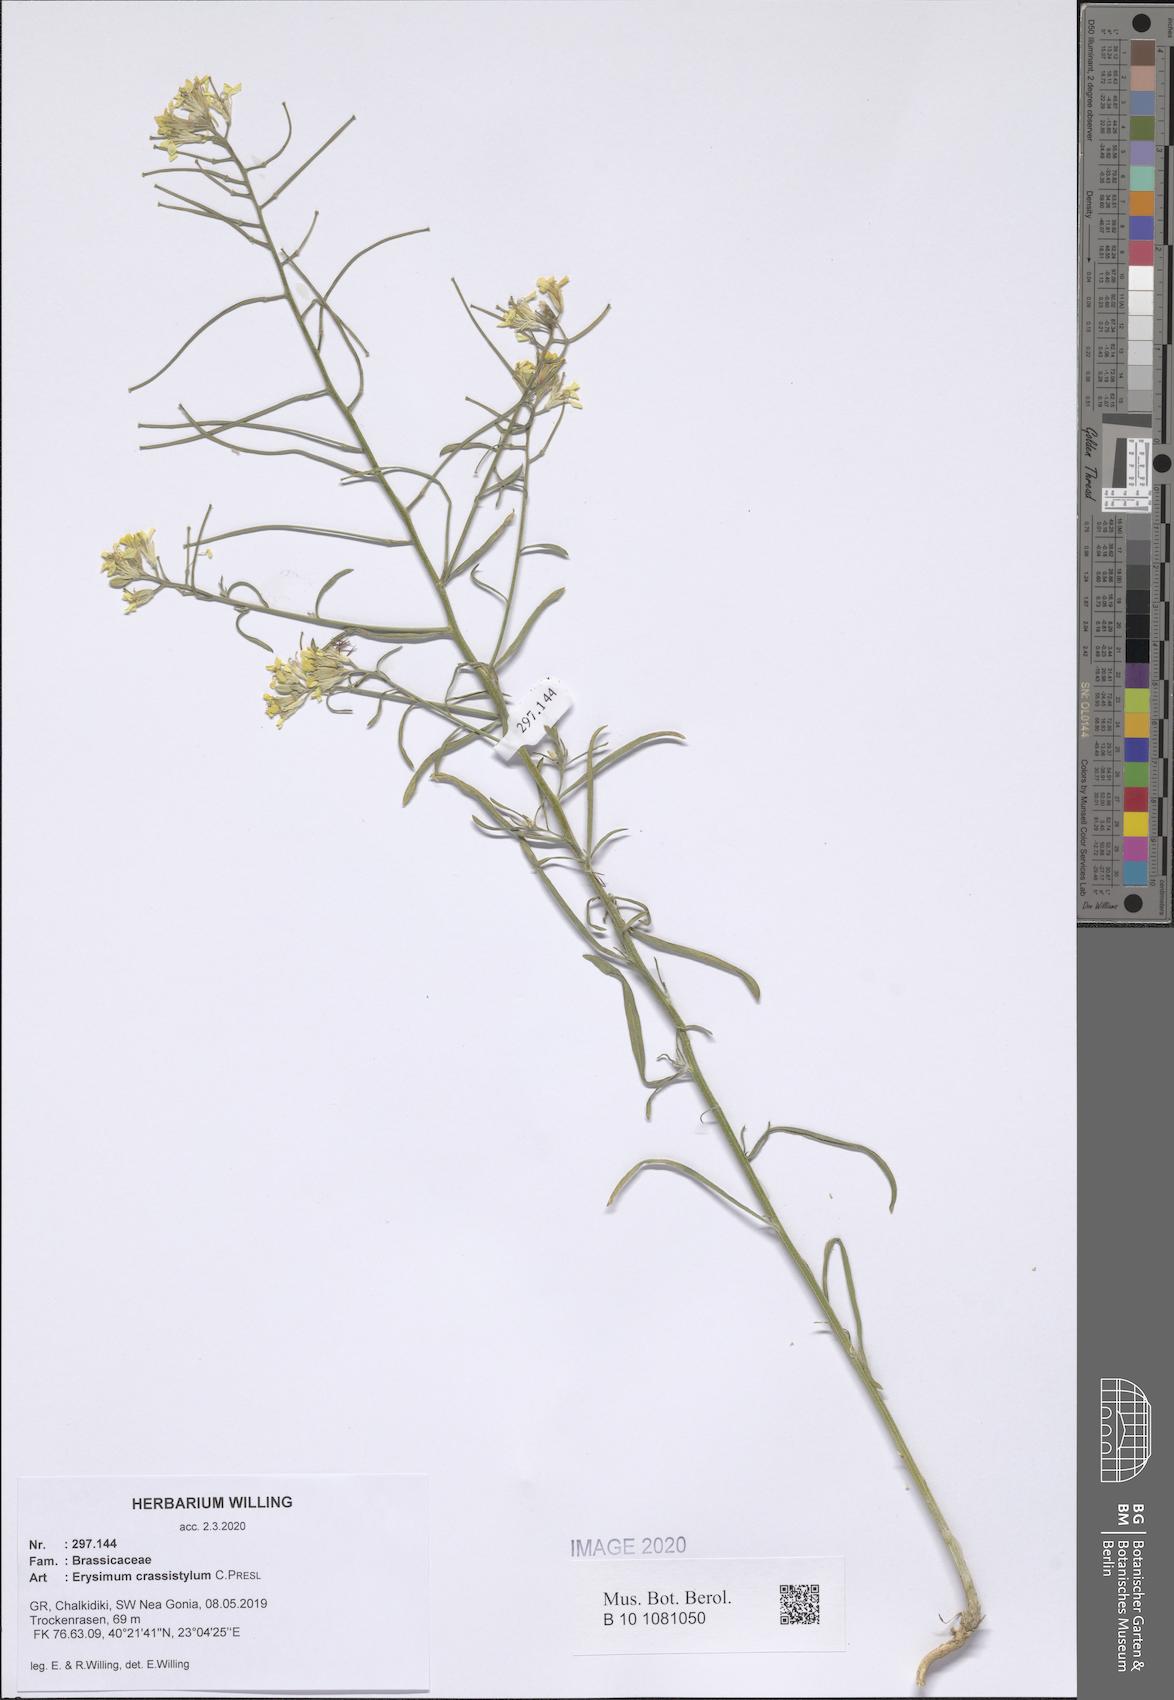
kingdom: Plantae
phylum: Tracheophyta
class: Magnoliopsida
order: Brassicales
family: Brassicaceae
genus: Erysimum
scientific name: Erysimum crassistylum
